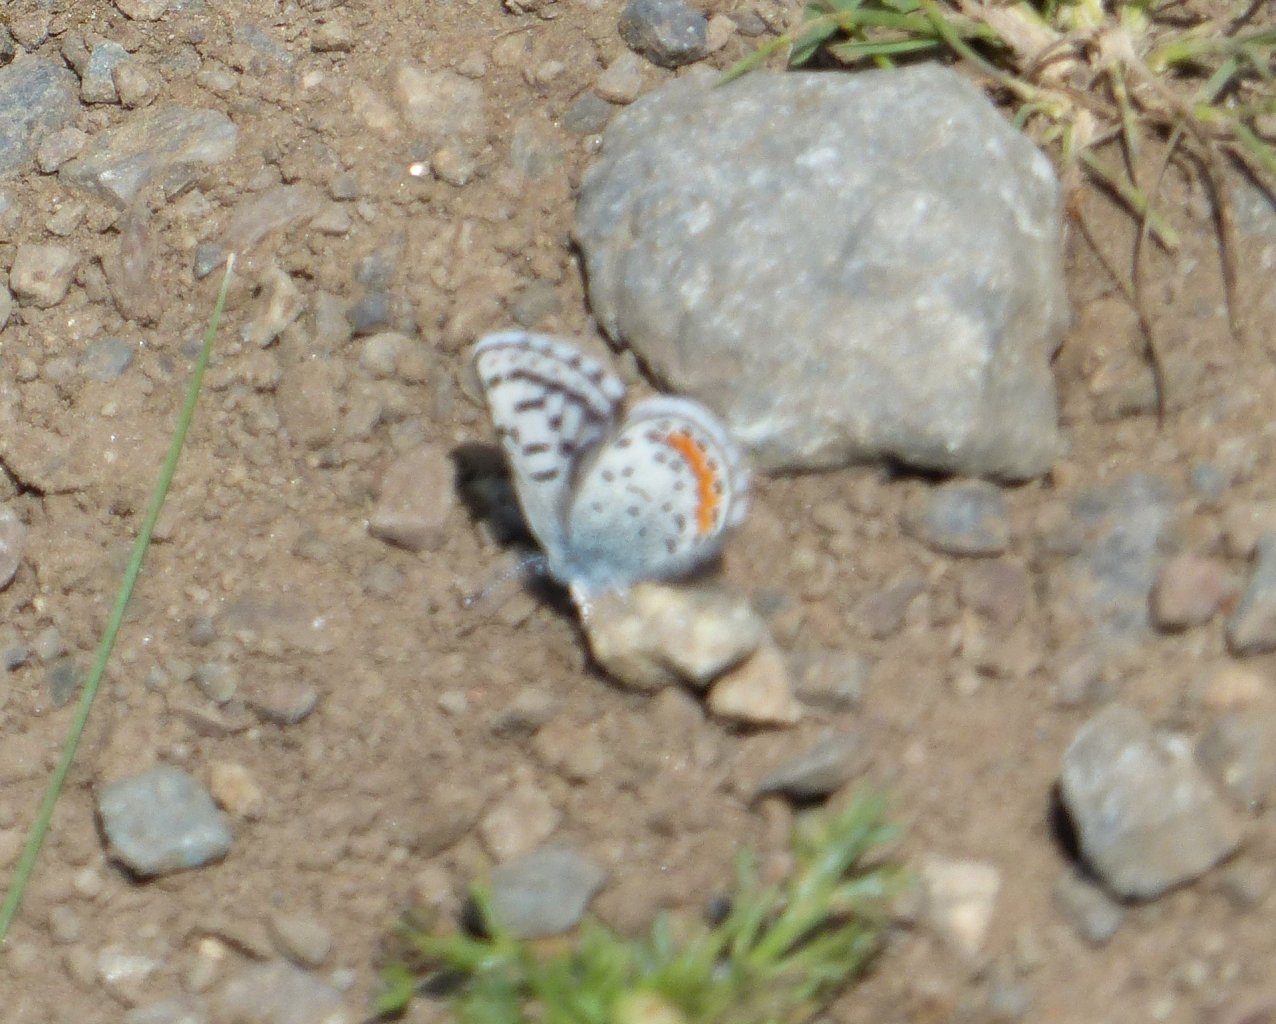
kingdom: Animalia
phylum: Arthropoda
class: Insecta
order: Lepidoptera
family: Lycaenidae
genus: Euphilotes
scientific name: Euphilotes battoides
